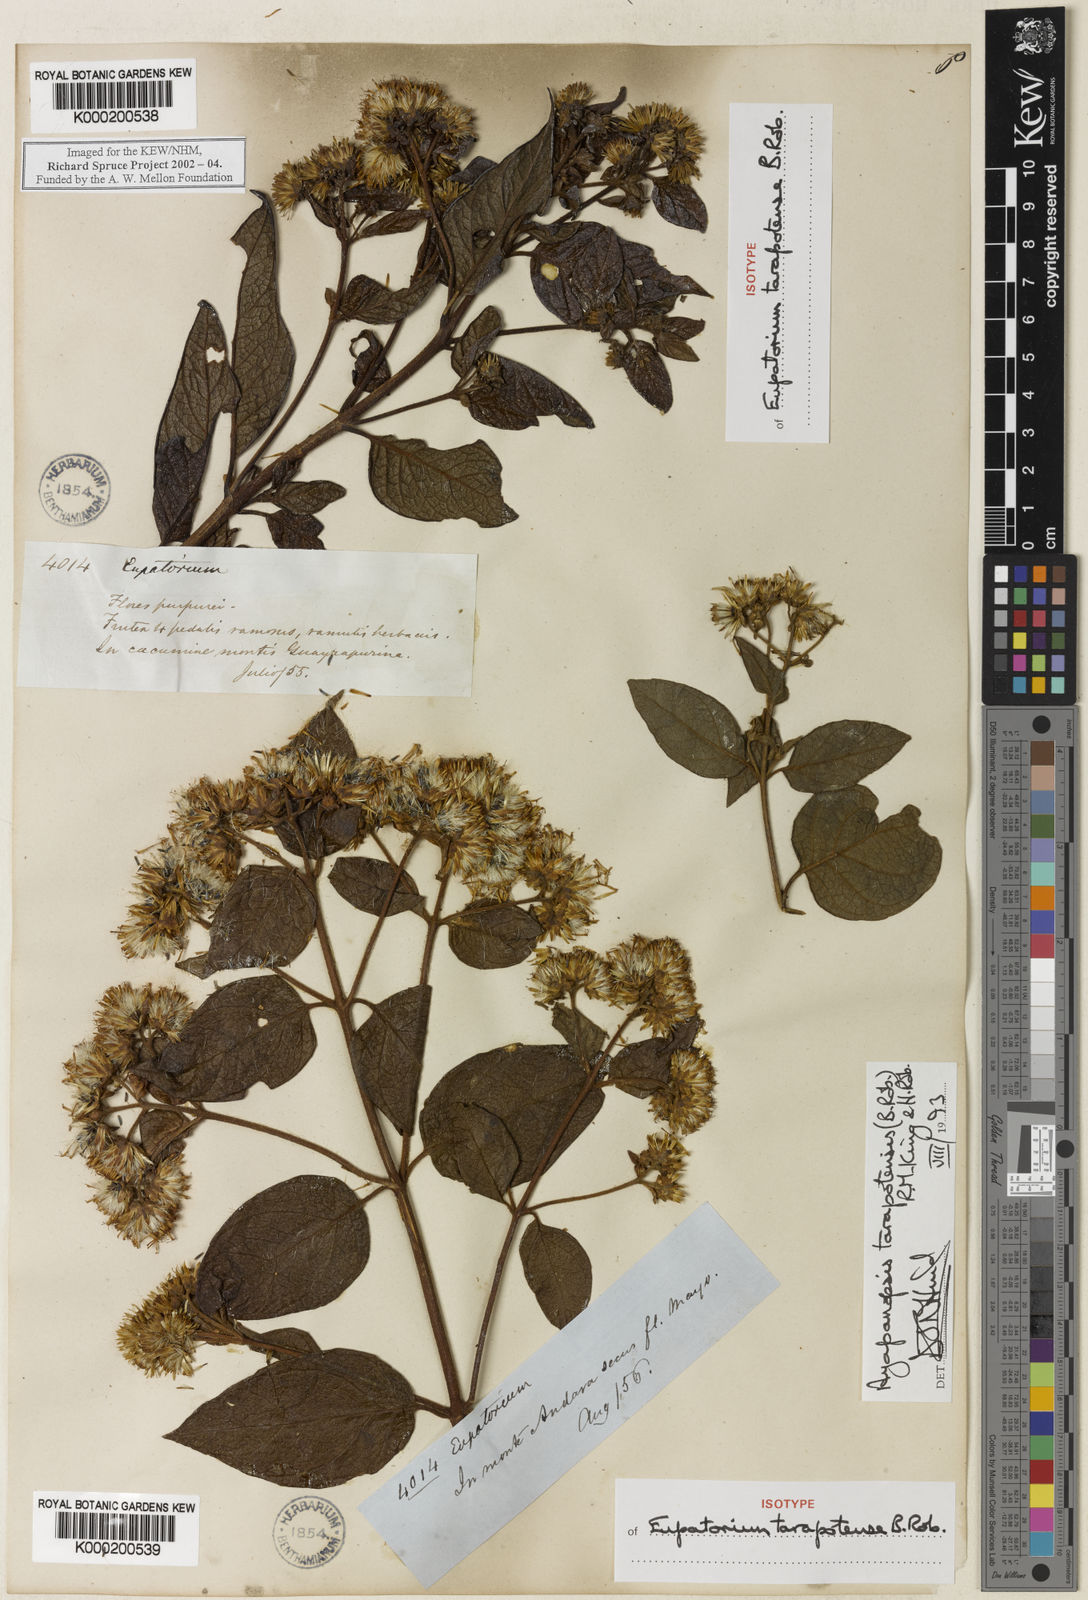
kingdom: Plantae
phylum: Tracheophyta
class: Magnoliopsida
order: Asterales
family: Asteraceae
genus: Ayapanopsis
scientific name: Ayapanopsis tarapotensis
